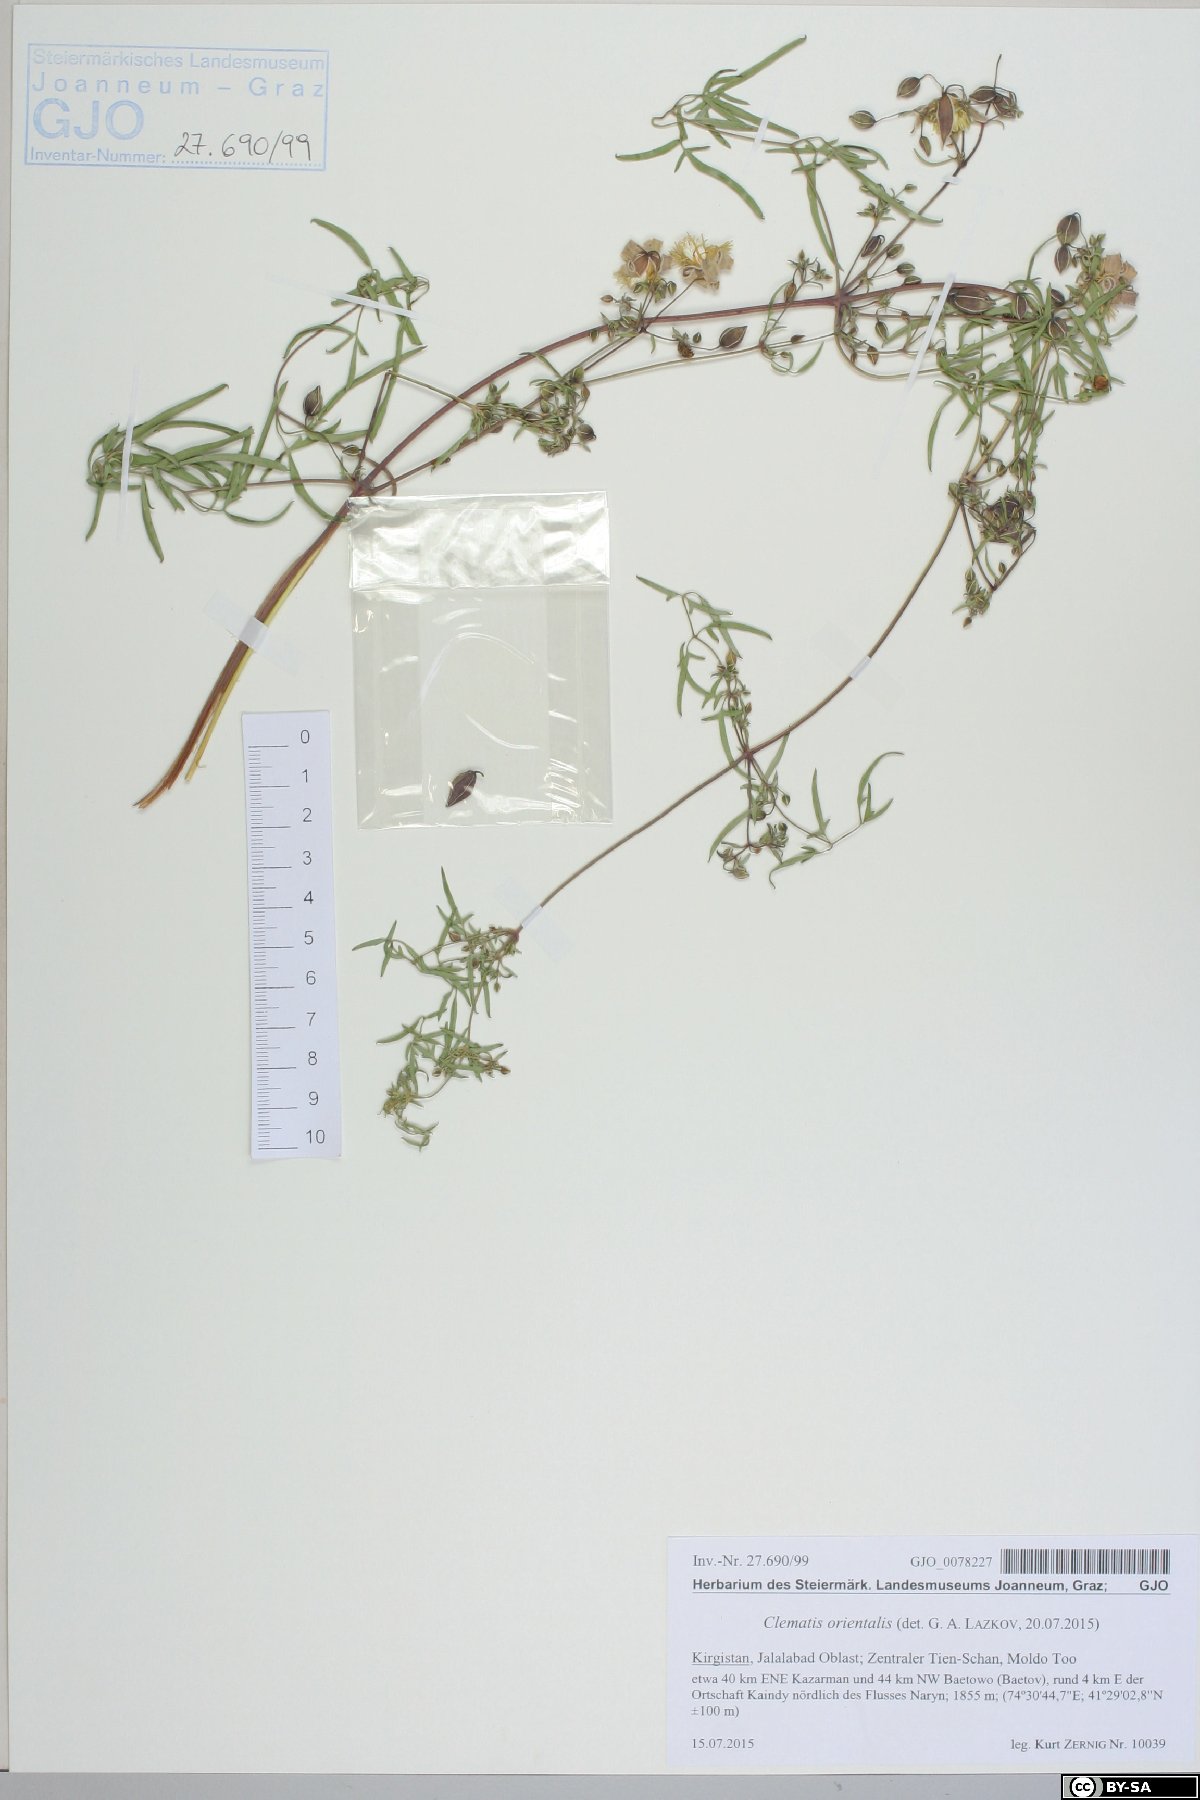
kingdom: Plantae
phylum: Tracheophyta
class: Magnoliopsida
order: Ranunculales
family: Ranunculaceae
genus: Clematis
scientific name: Clematis orientalis
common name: Oriental virgin's-bower
